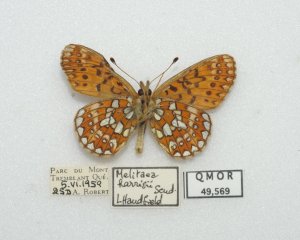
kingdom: Animalia
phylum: Arthropoda
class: Insecta
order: Lepidoptera
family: Nymphalidae
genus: Boloria
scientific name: Boloria eunomia
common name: Bog Fritillary
